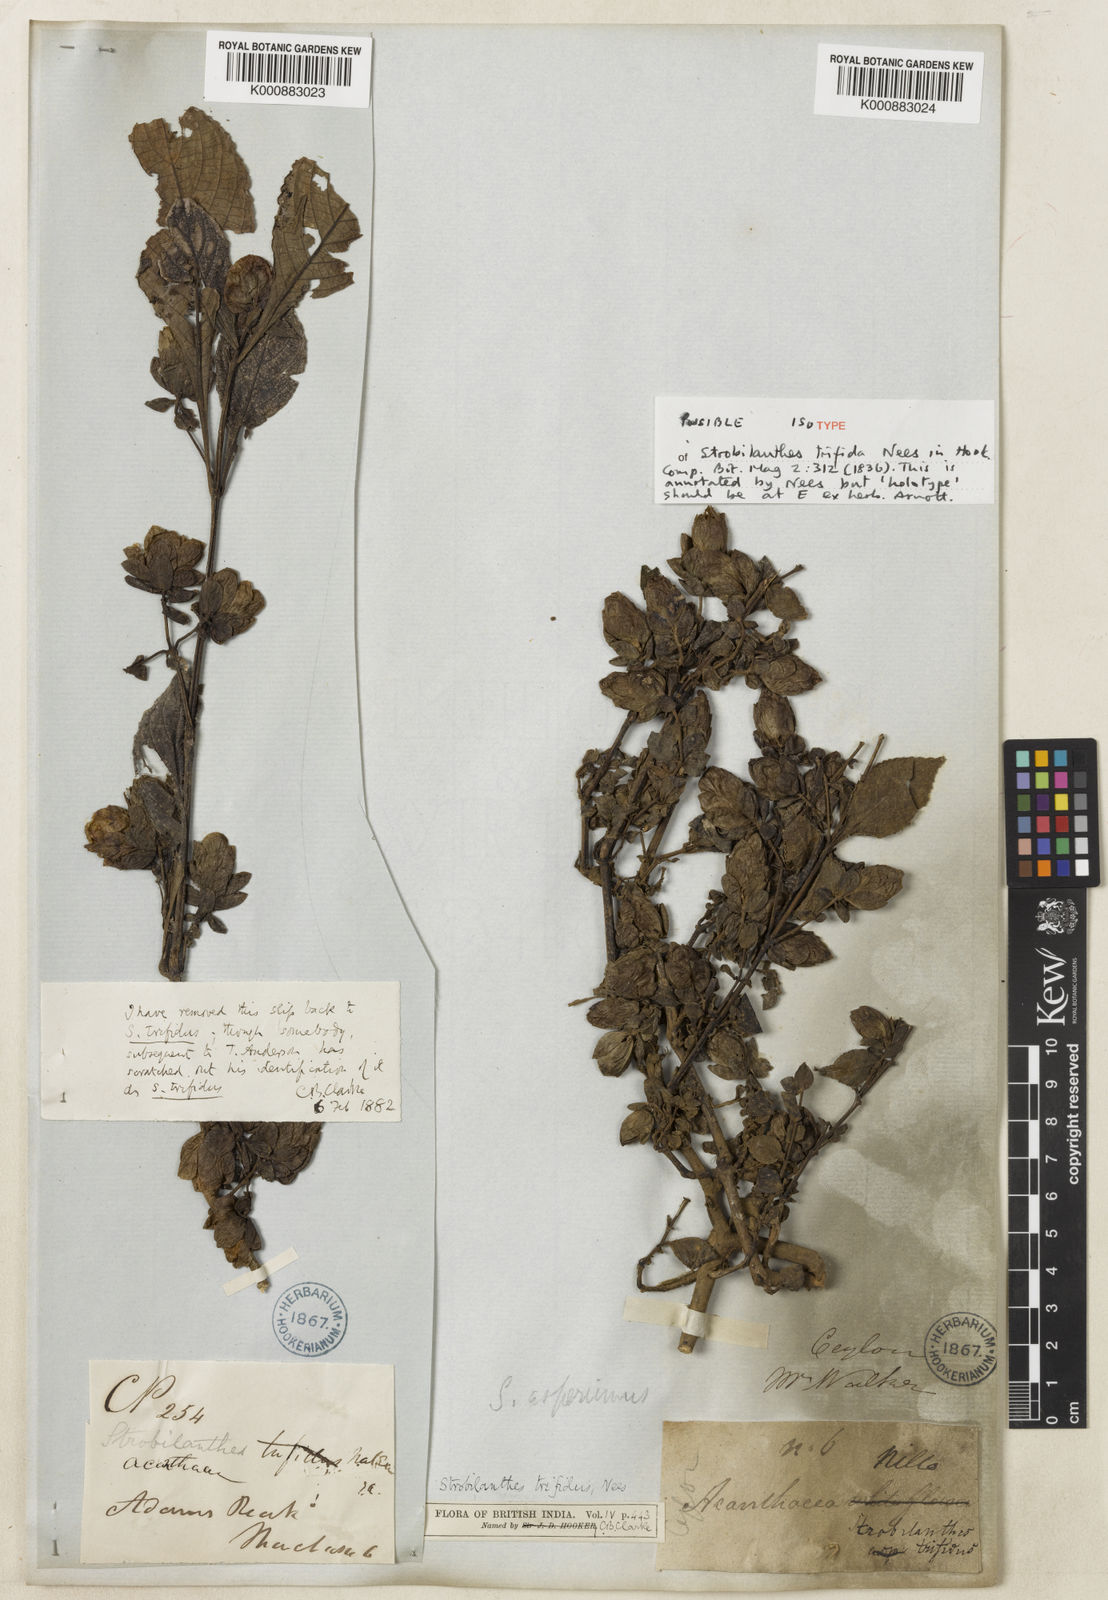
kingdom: Plantae
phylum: Tracheophyta
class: Magnoliopsida
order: Lamiales
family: Acanthaceae
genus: Strobilanthes
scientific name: Strobilanthes
